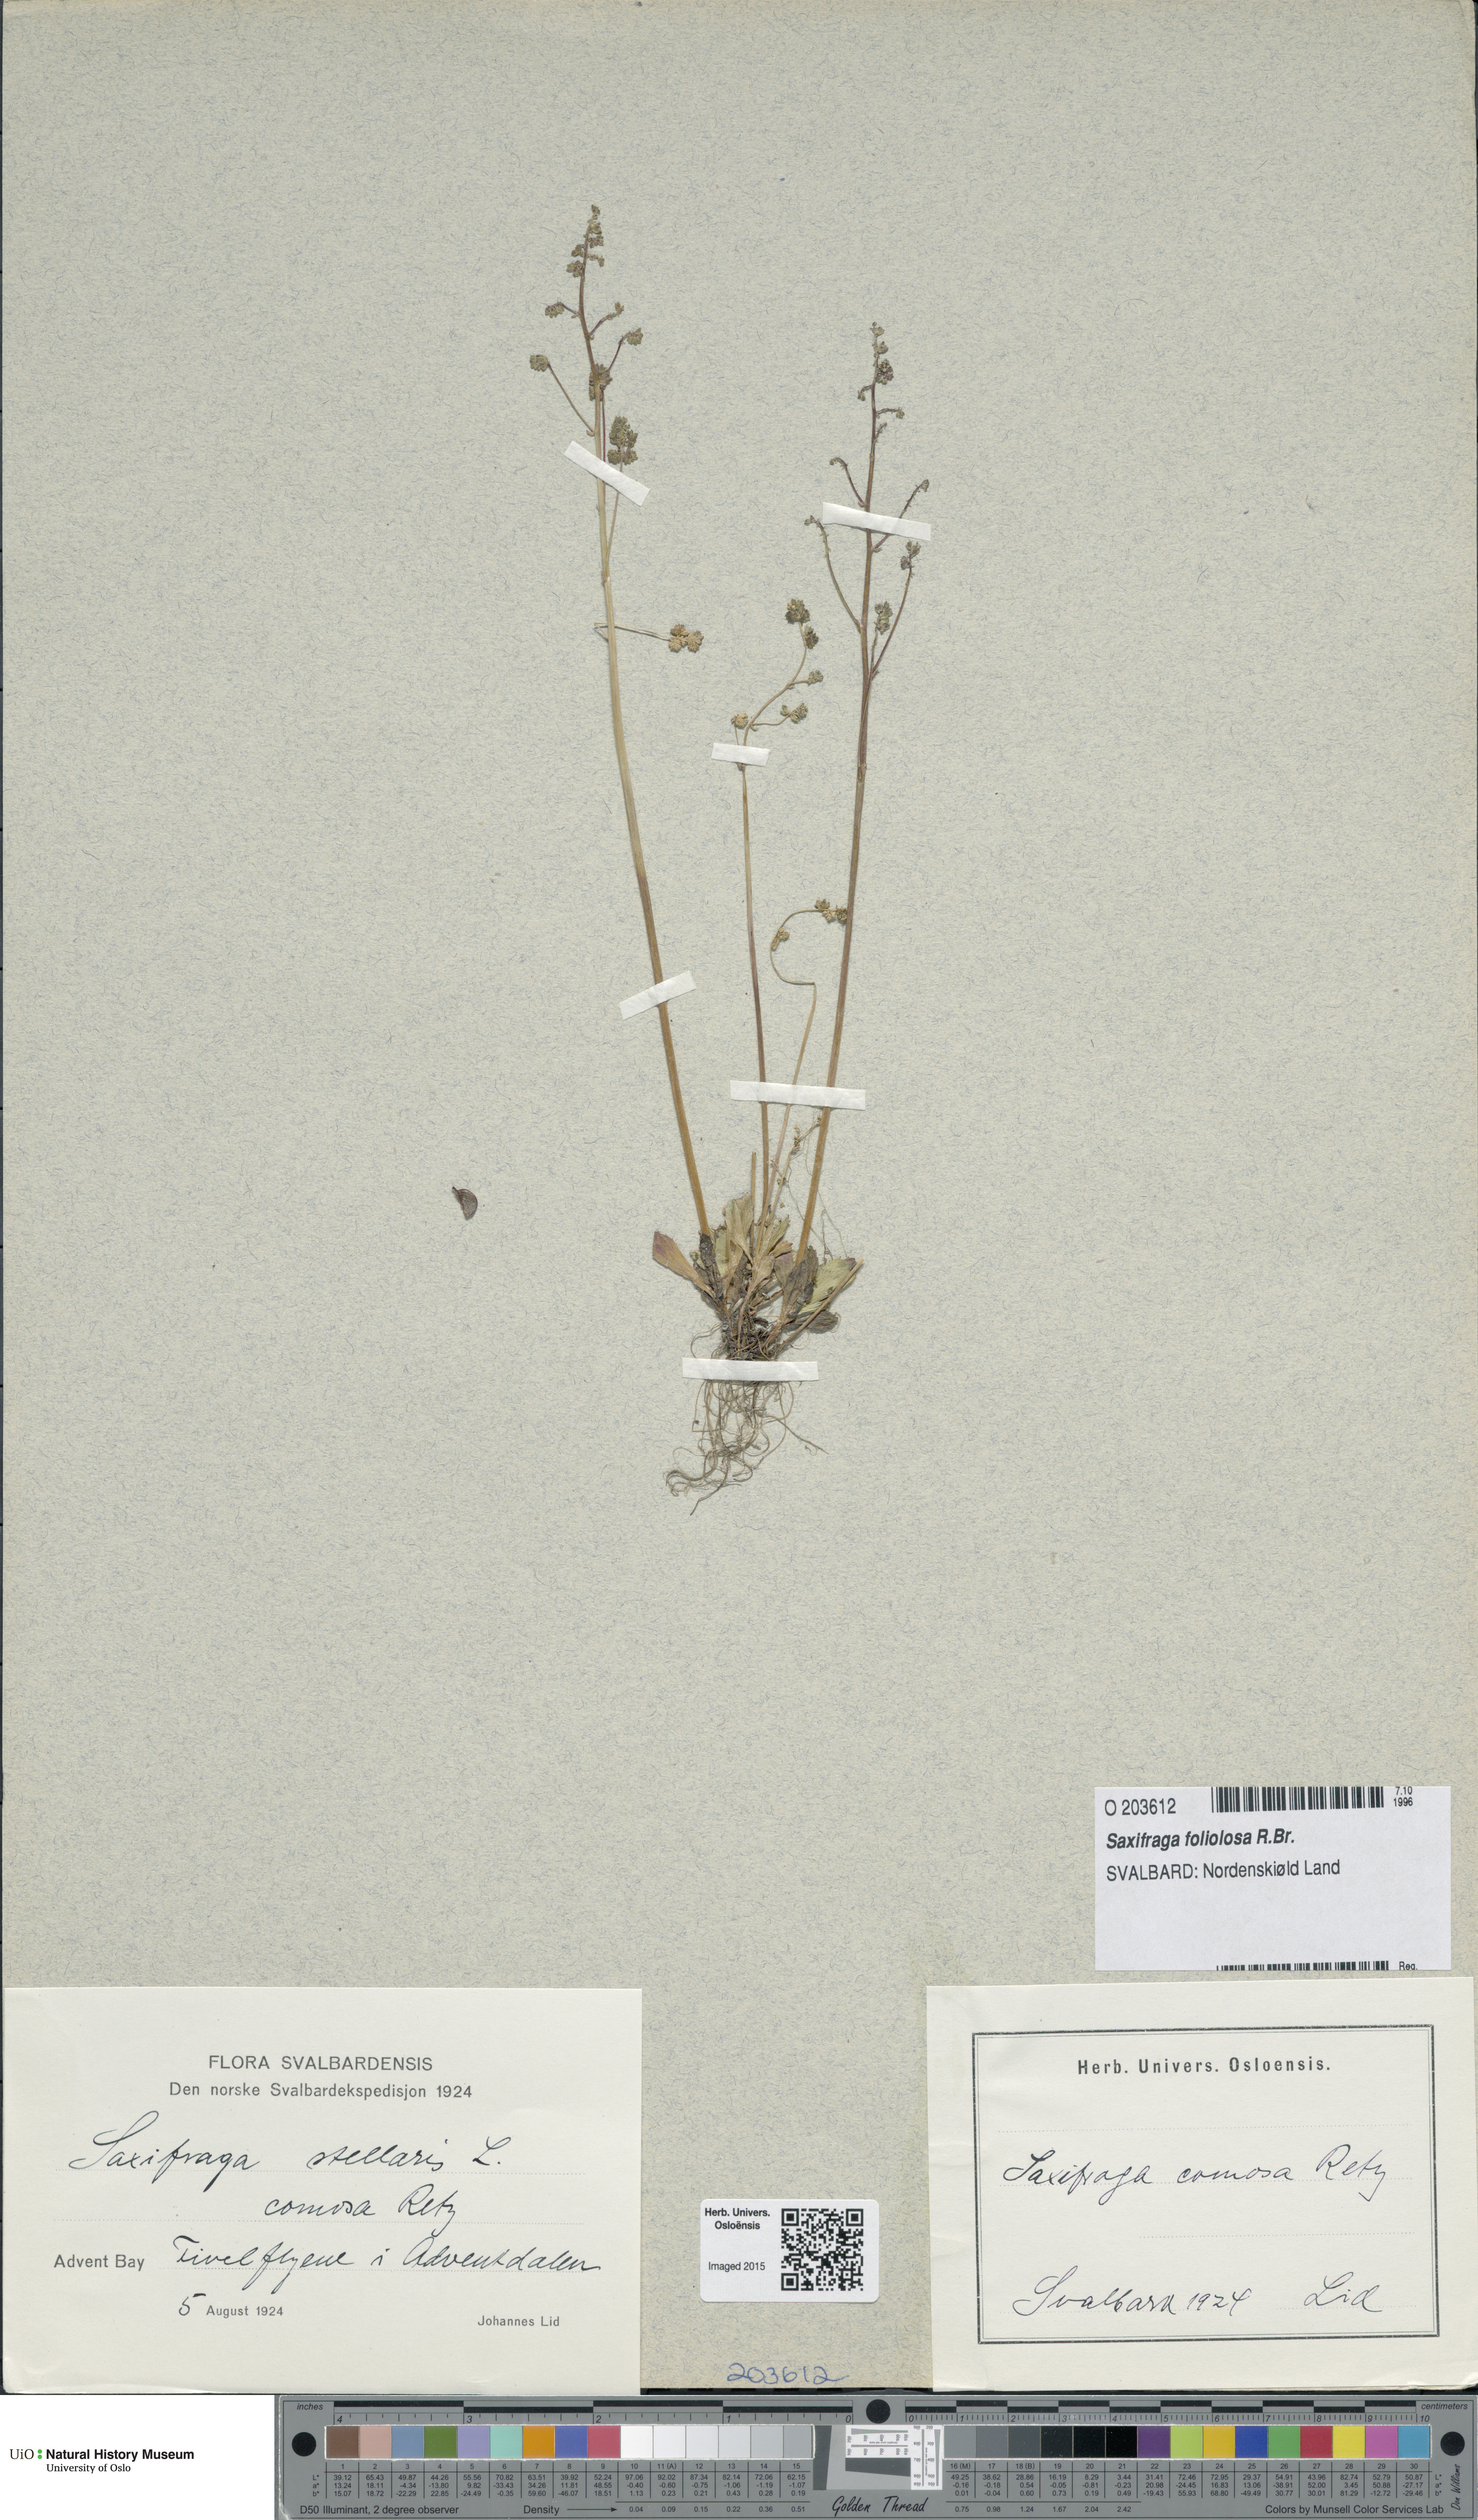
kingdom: Plantae
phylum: Tracheophyta
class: Magnoliopsida
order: Saxifragales
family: Saxifragaceae
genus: Micranthes
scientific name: Micranthes foliolosa
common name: Leafystem saxifrage
